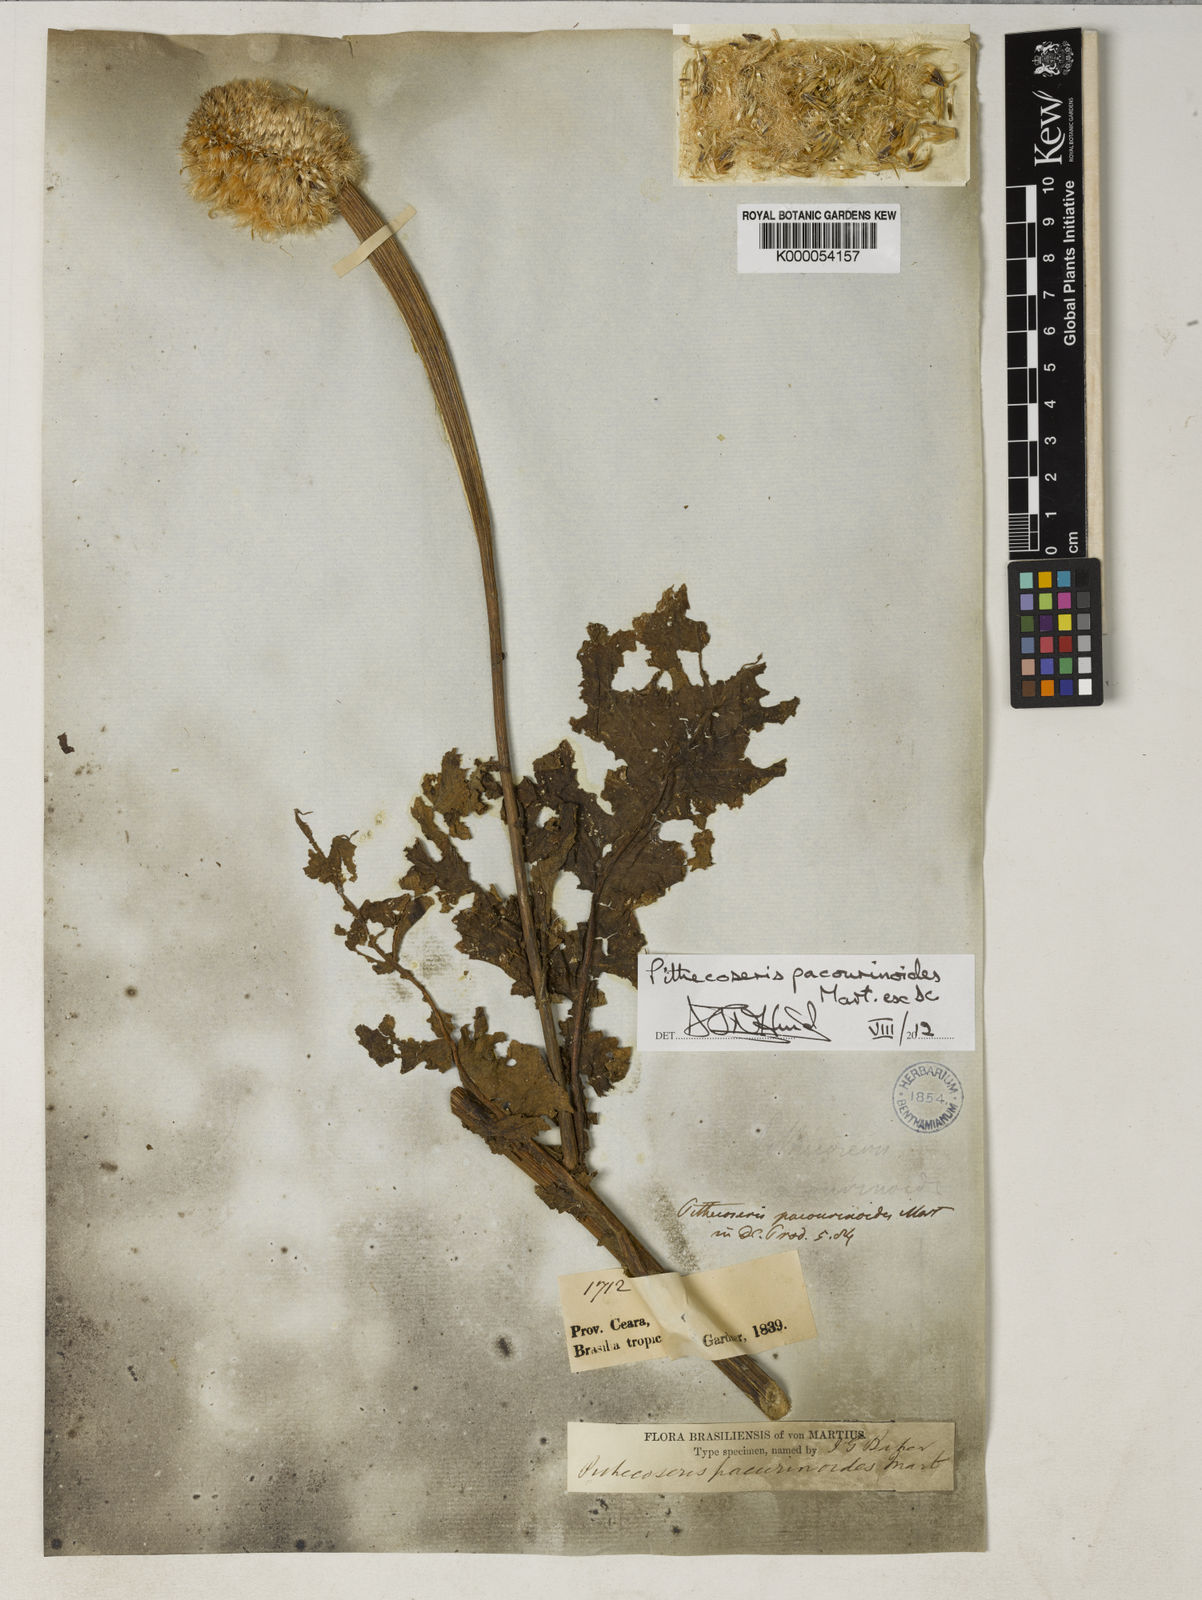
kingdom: Plantae
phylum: Tracheophyta
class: Magnoliopsida
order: Asterales
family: Asteraceae
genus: Chresta
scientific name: Chresta pacourinoides
